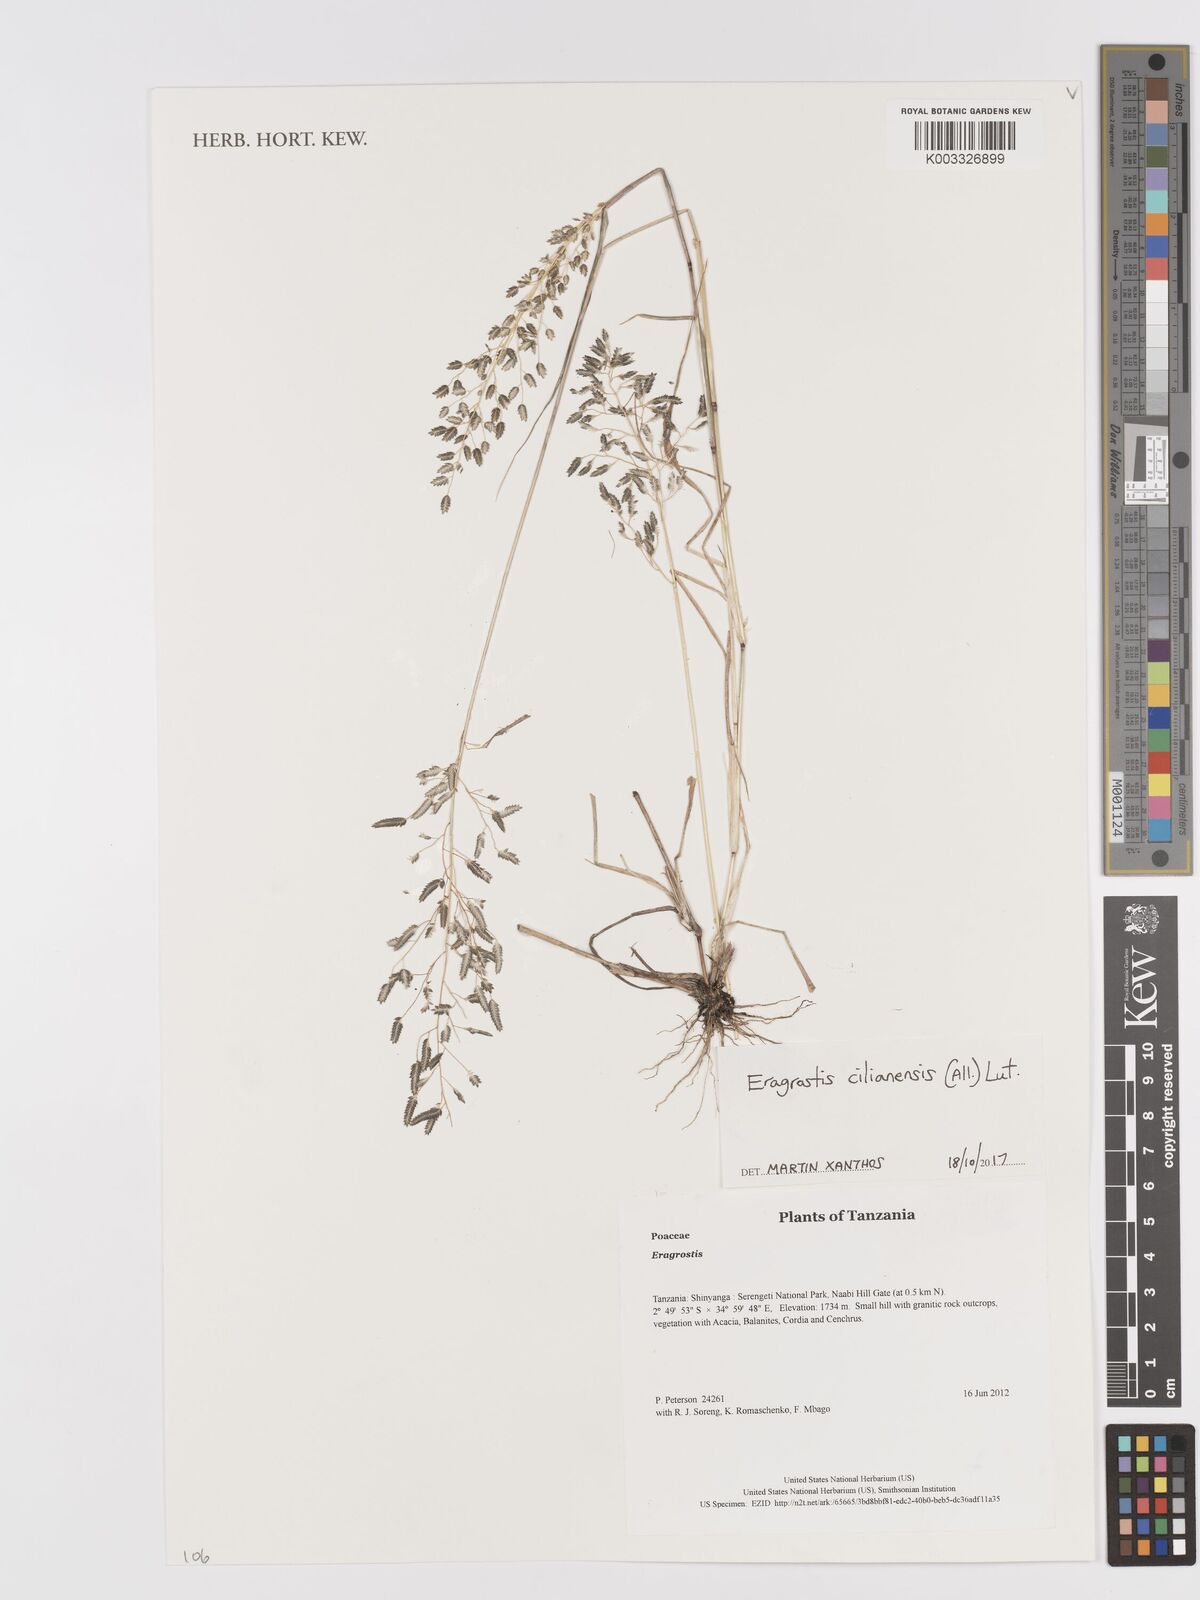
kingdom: Plantae
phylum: Tracheophyta
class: Liliopsida
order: Poales
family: Poaceae
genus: Eragrostis
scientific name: Eragrostis cilianensis
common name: Stinkgrass
